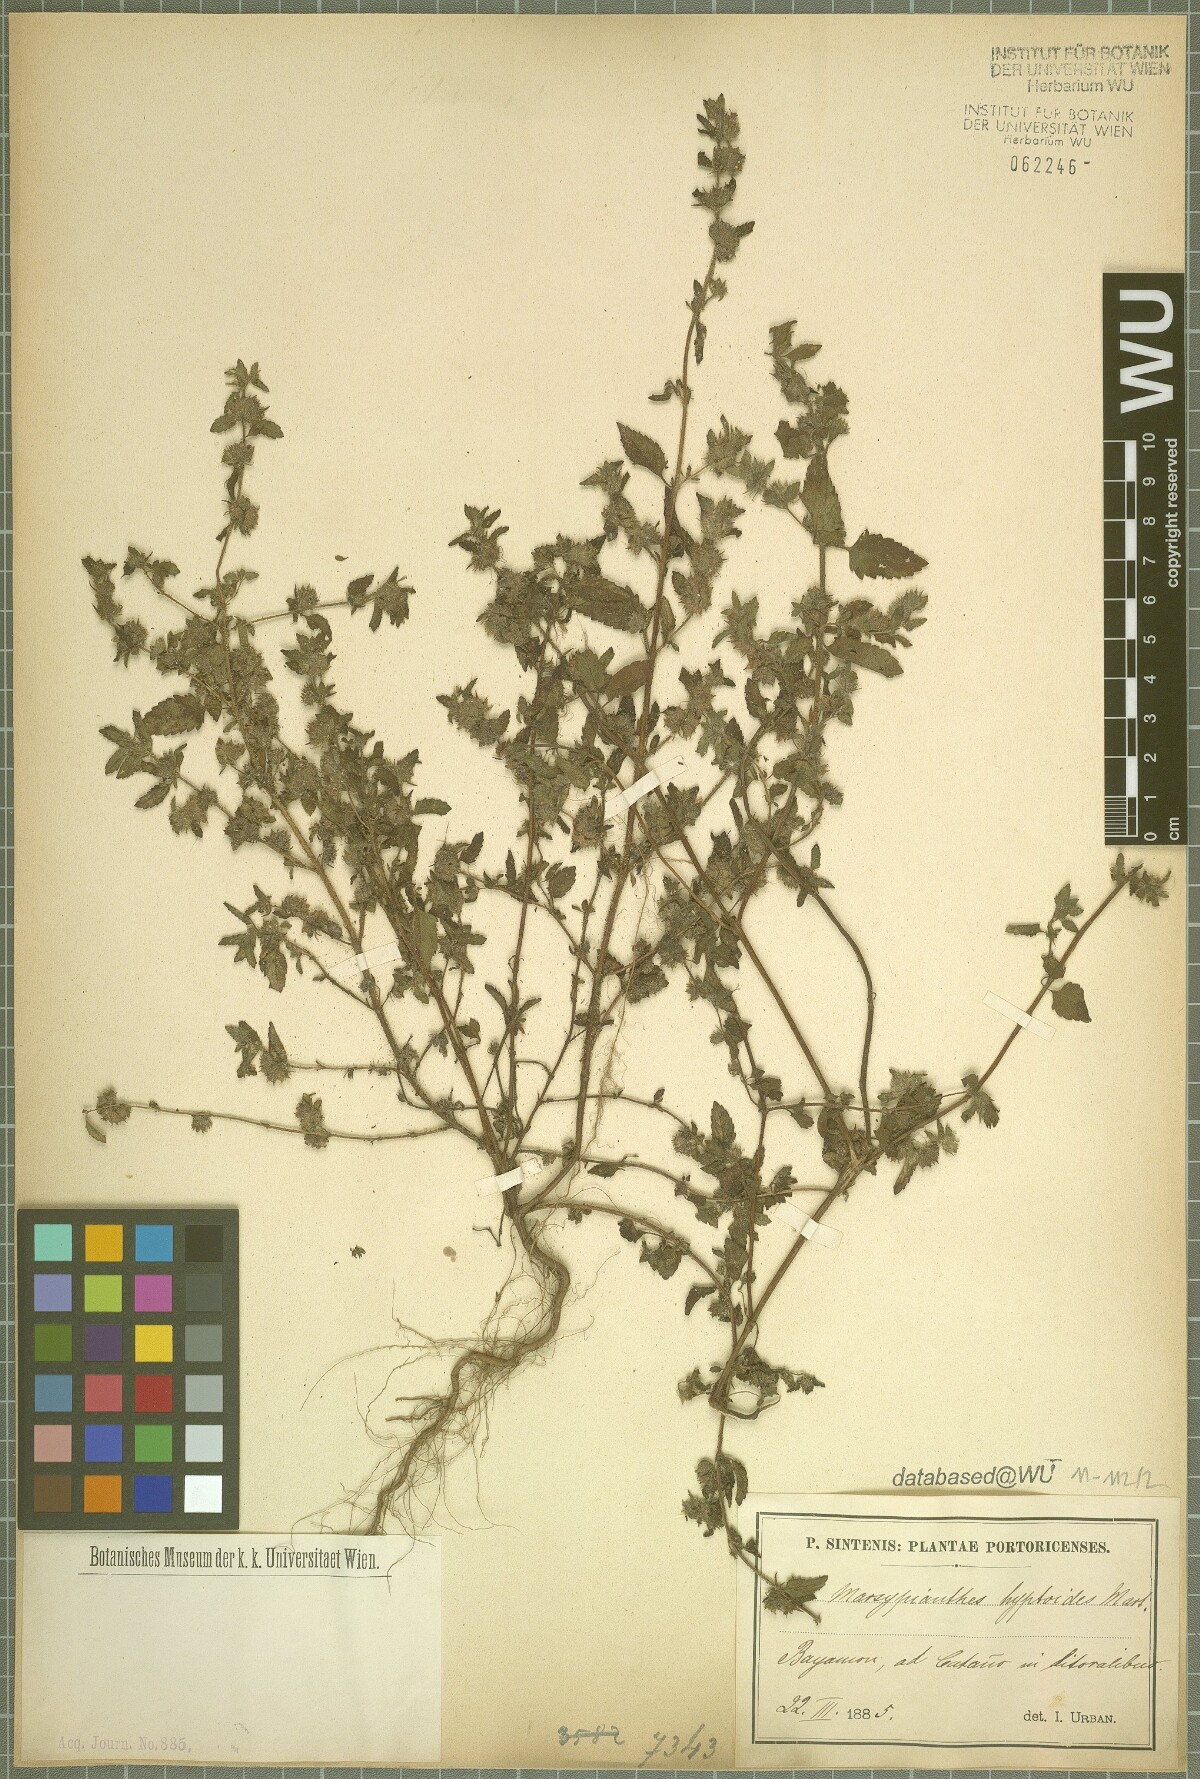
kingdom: Plantae
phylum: Tracheophyta
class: Magnoliopsida
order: Lamiales
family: Lamiaceae
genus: Marsypianthes
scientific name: Marsypianthes chamaedrys
